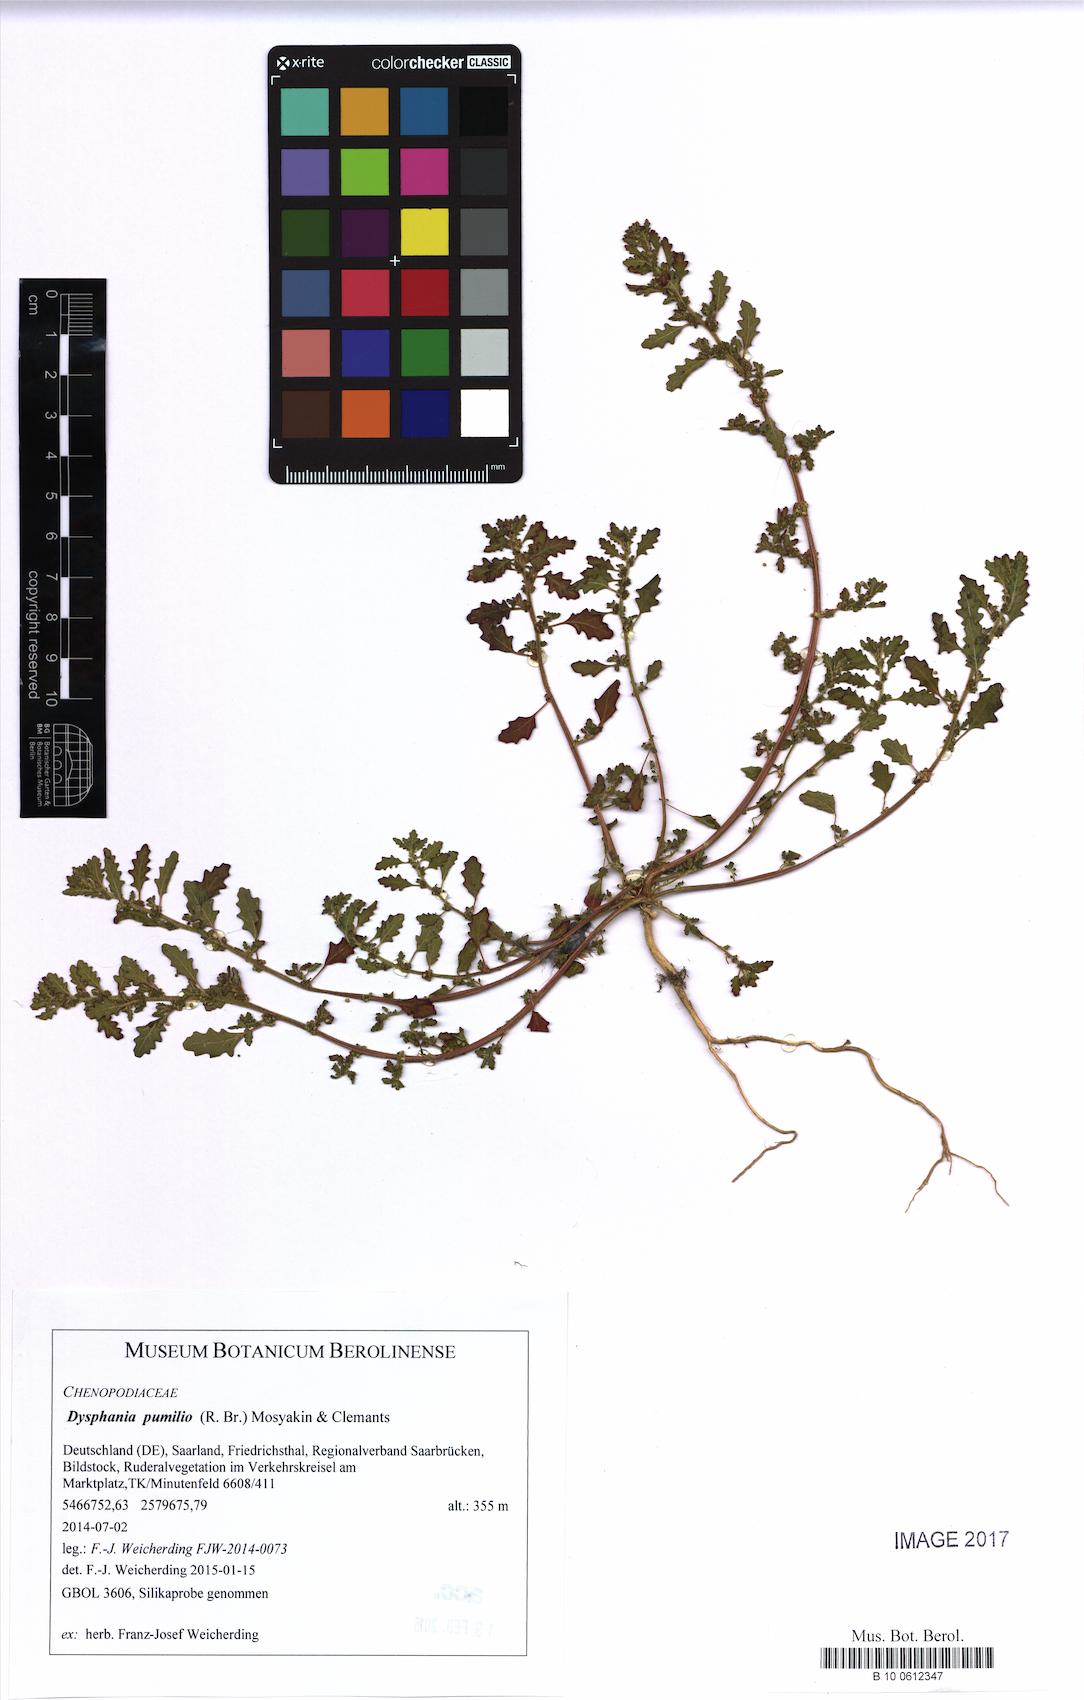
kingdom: Plantae
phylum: Tracheophyta
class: Magnoliopsida
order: Caryophyllales
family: Amaranthaceae
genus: Dysphania
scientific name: Dysphania pumilio
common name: Clammy goosefoot
